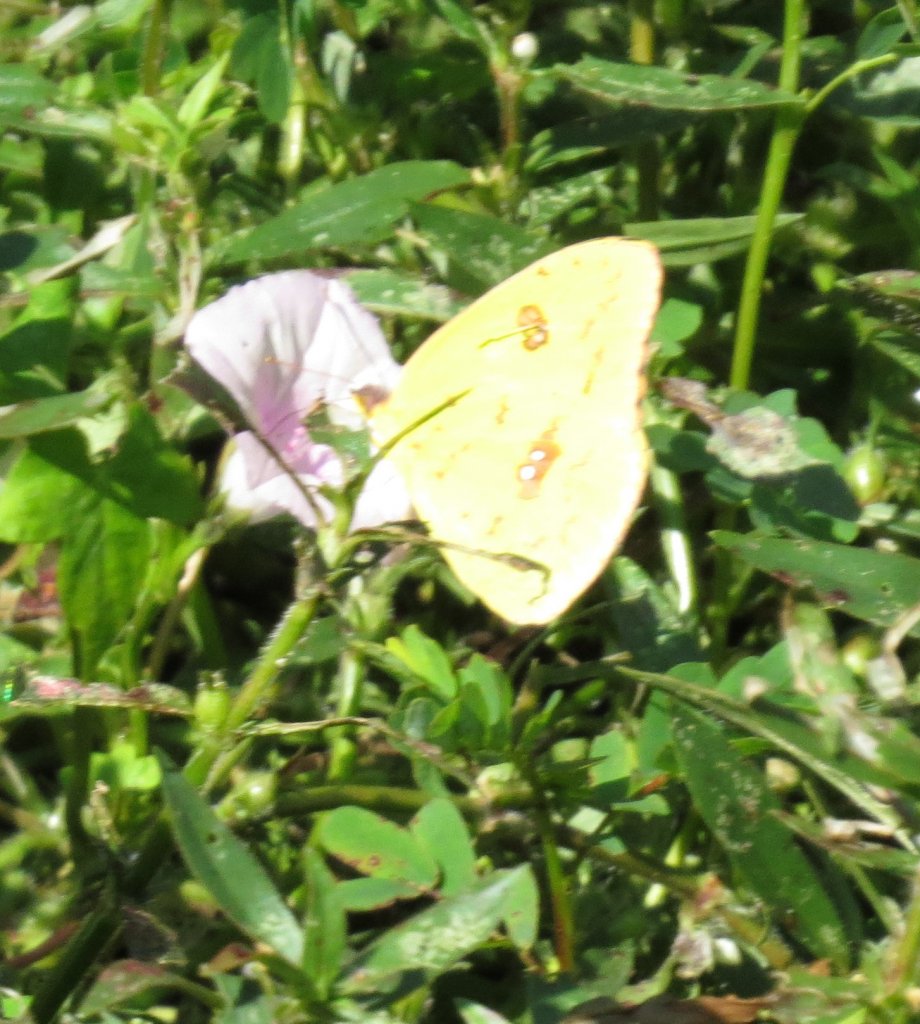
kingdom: Animalia
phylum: Arthropoda
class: Insecta
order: Lepidoptera
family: Pieridae
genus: Phoebis
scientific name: Phoebis sennae
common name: Cloudless Sulphur
